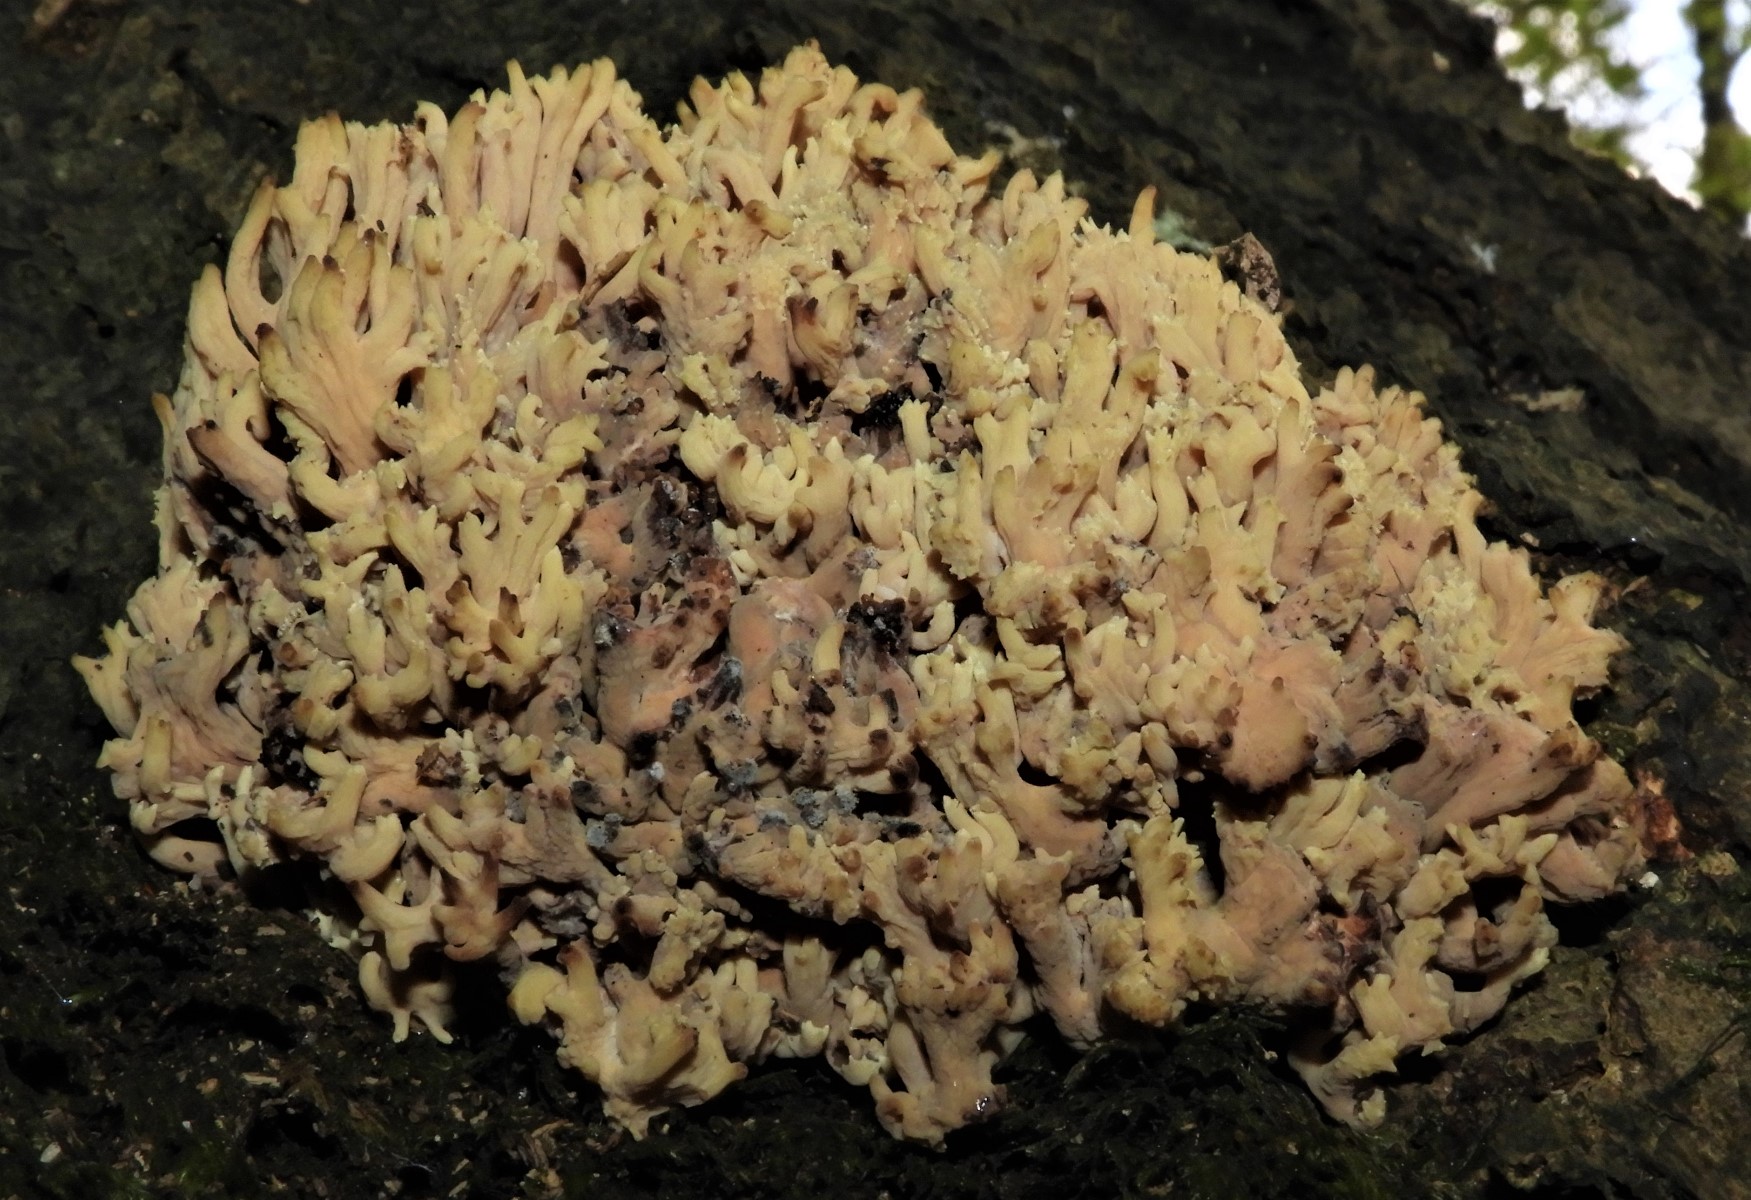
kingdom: Fungi
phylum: Basidiomycota
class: Agaricomycetes
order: Gomphales
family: Gomphaceae
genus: Ramaria
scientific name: Ramaria stricta
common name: rank koralsvamp
